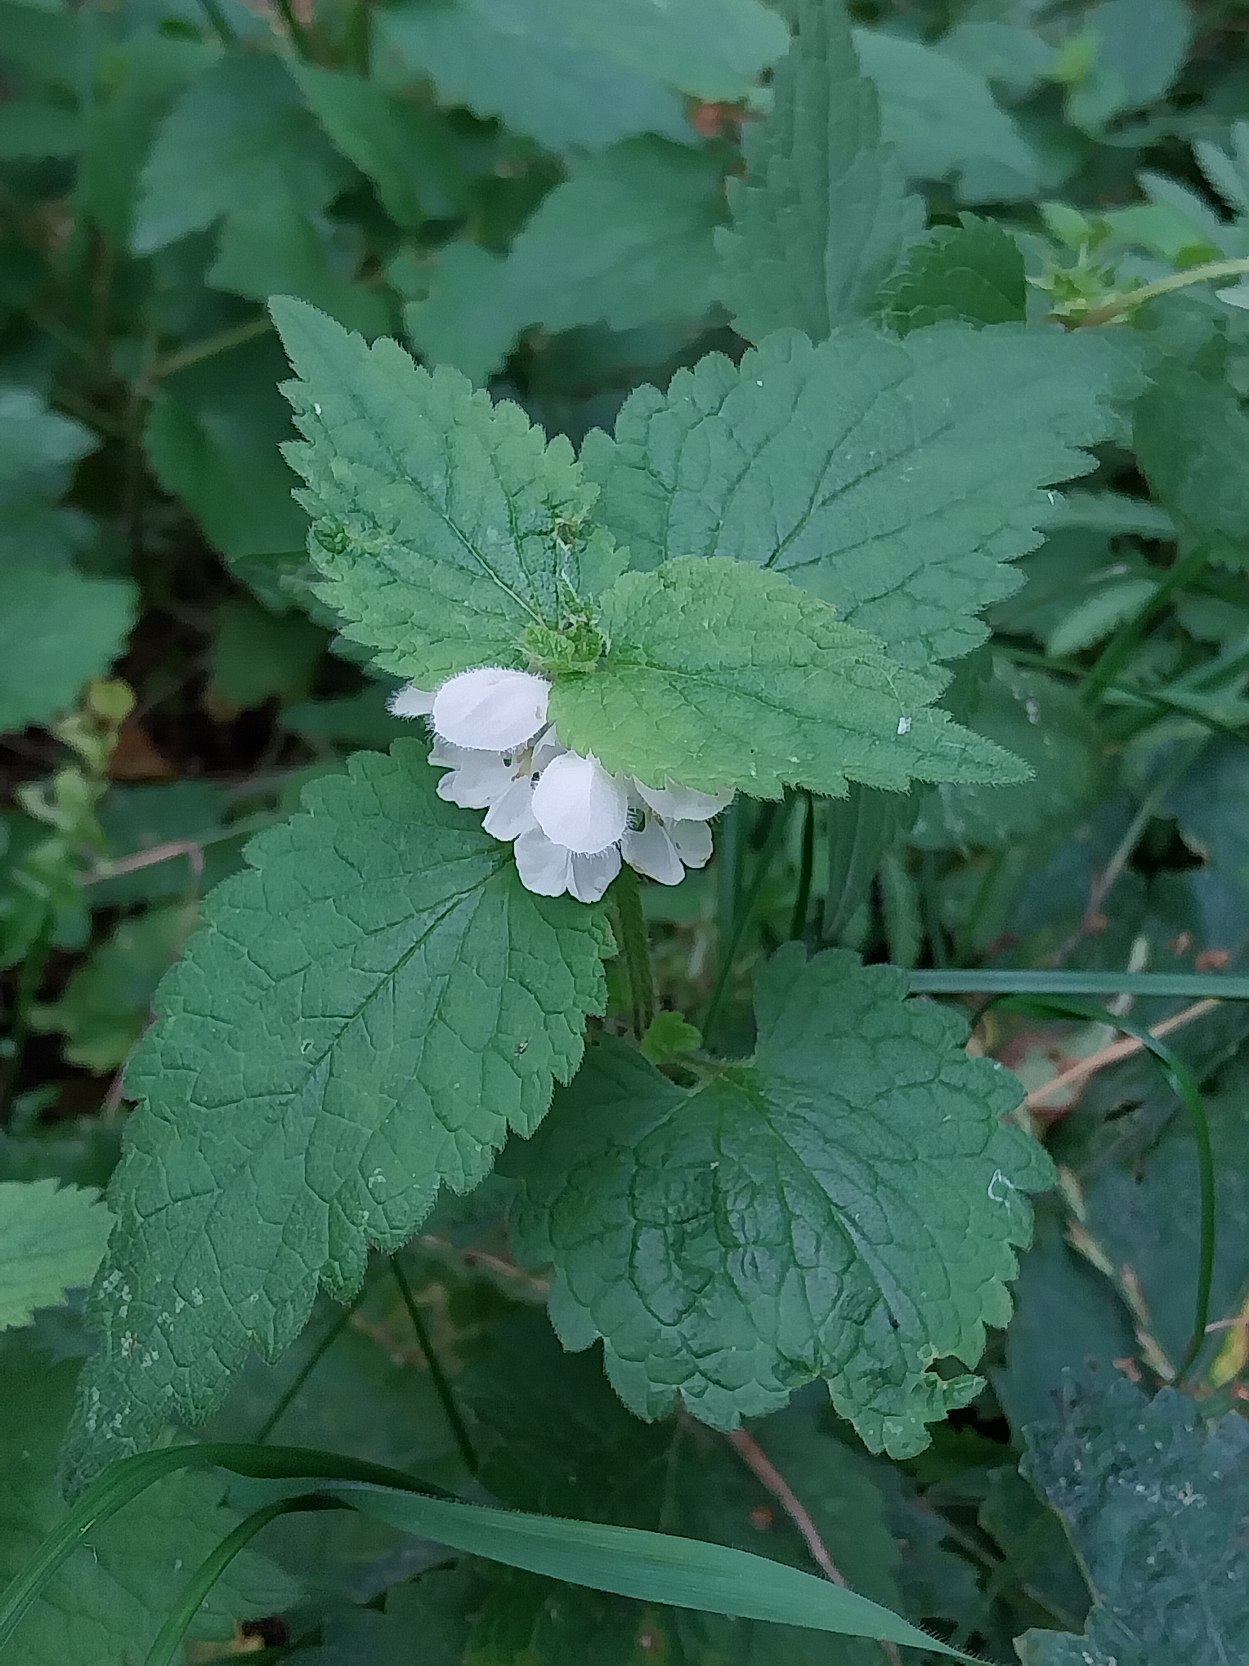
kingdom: Plantae
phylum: Tracheophyta
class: Magnoliopsida
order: Lamiales
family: Lamiaceae
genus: Lamium
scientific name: Lamium album
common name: Døvnælde
